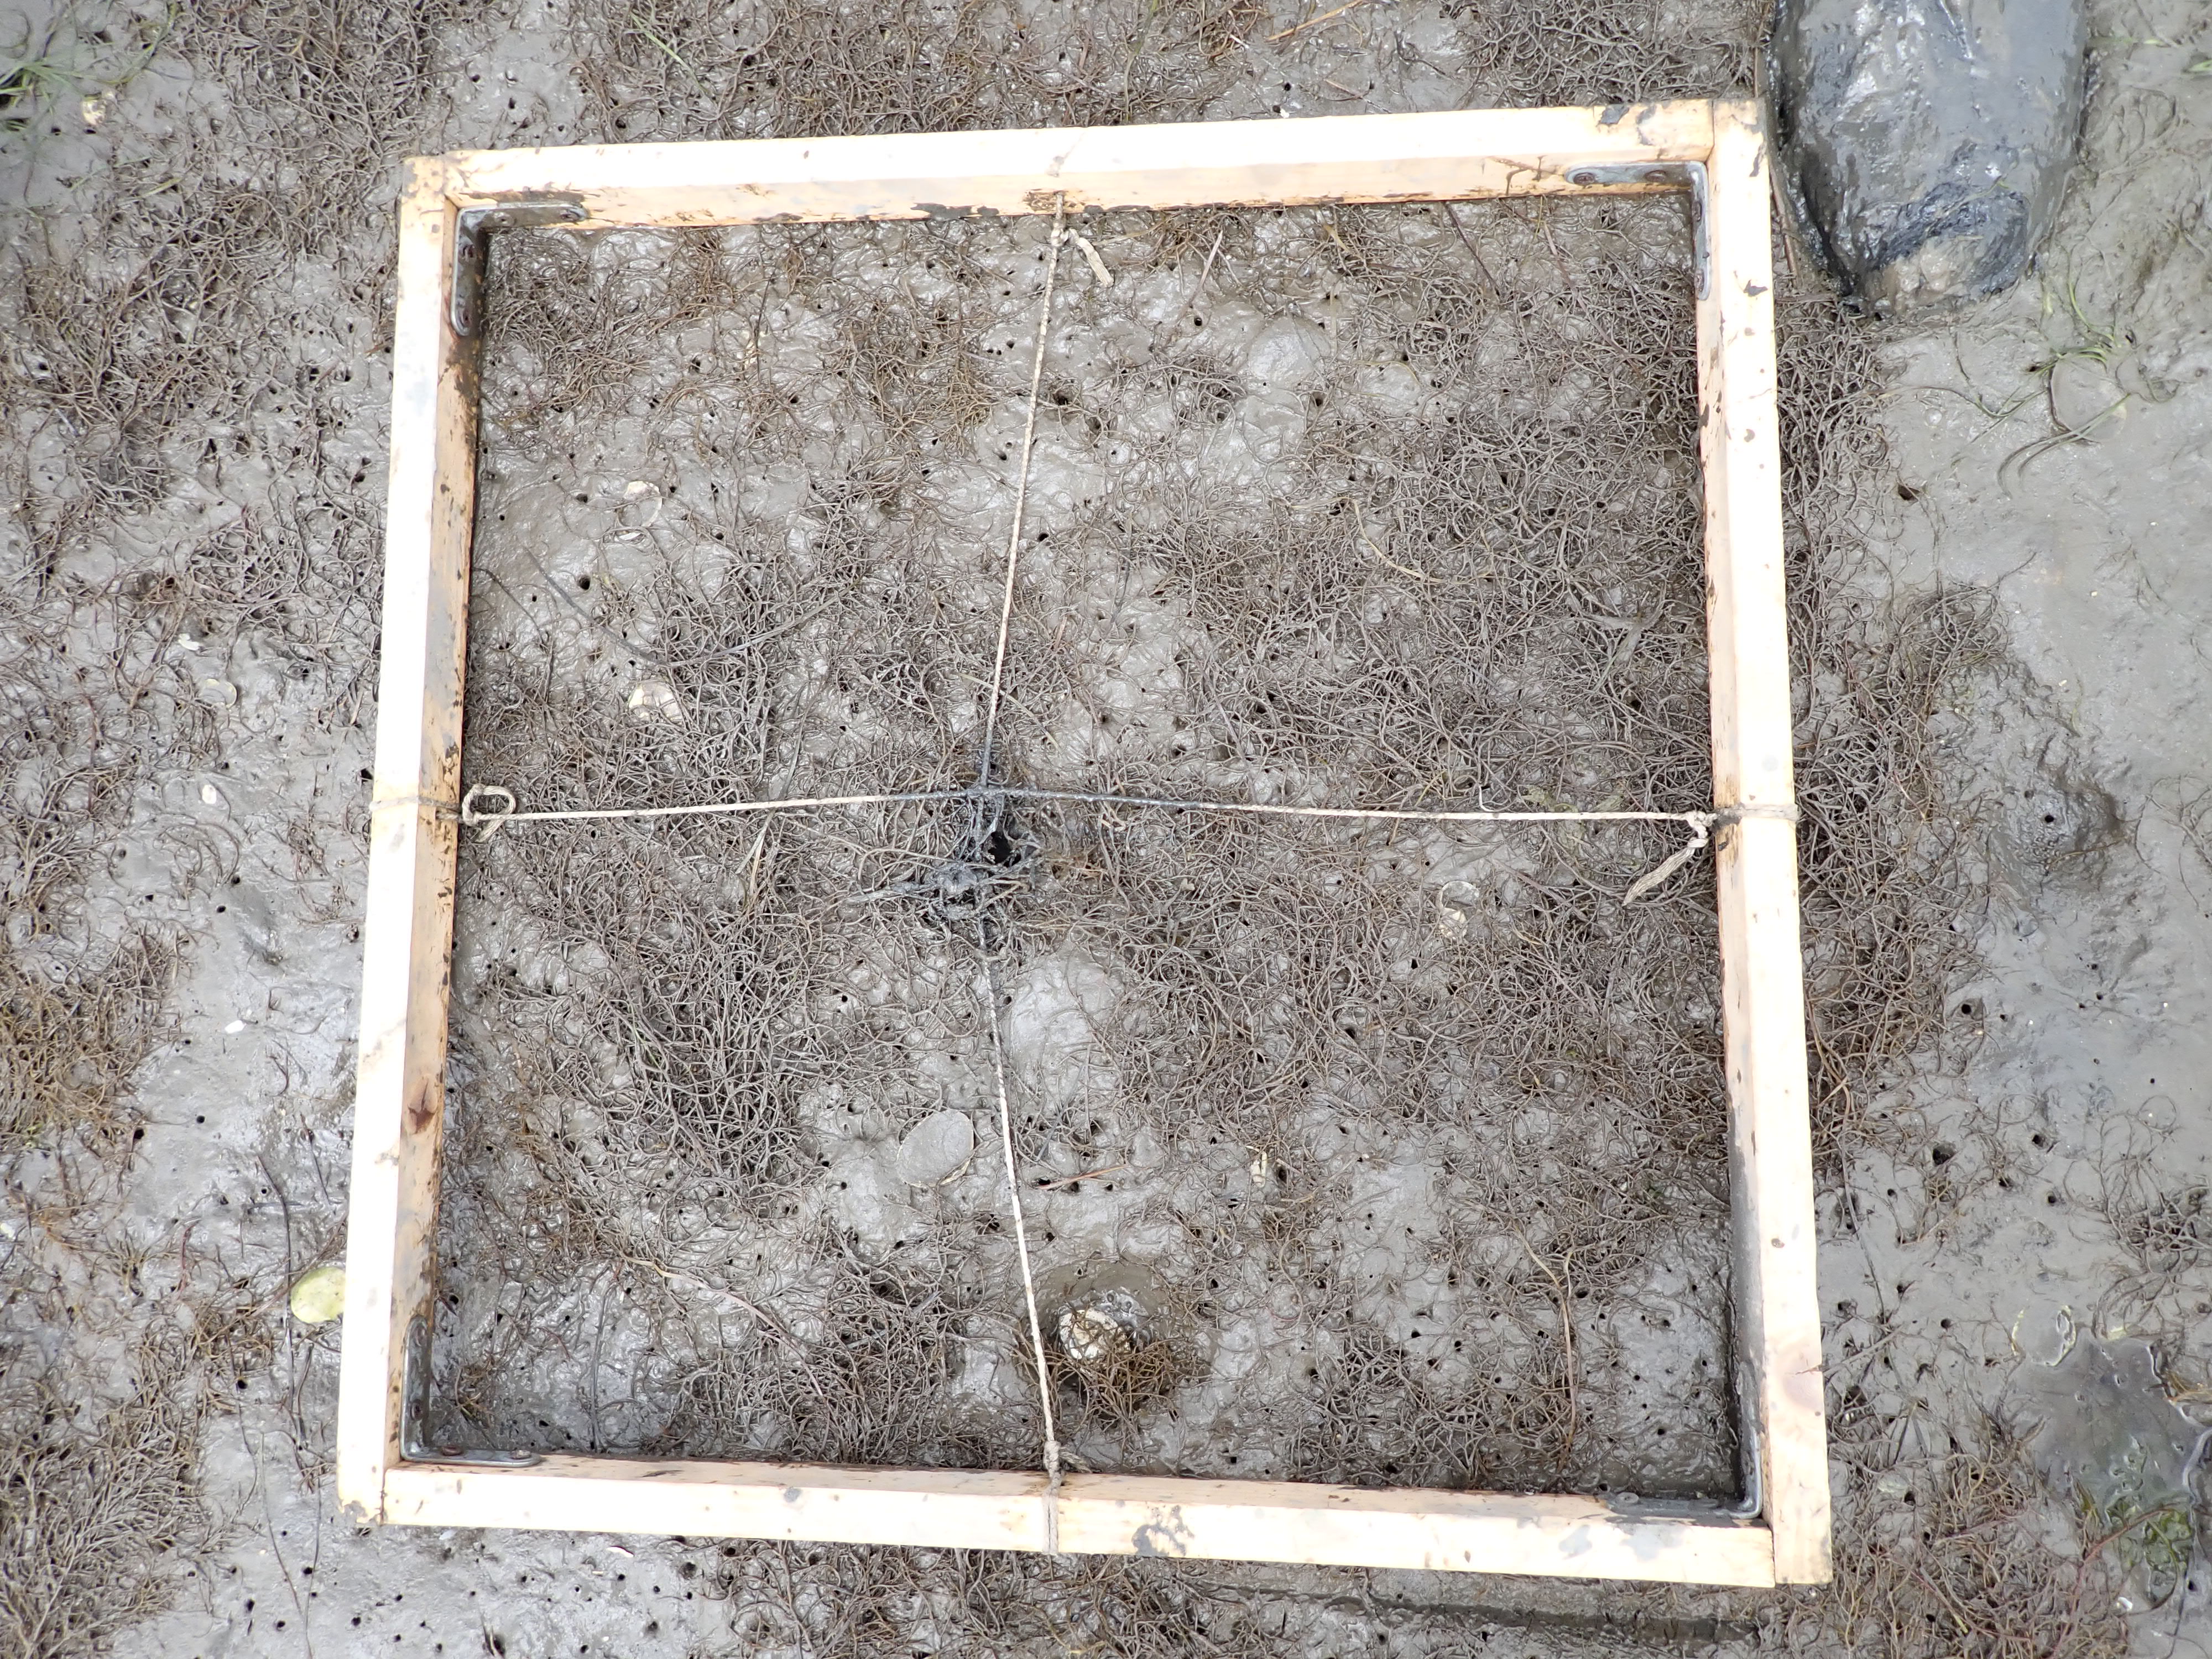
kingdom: Plantae
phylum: Rhodophyta
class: Florideophyceae
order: Gracilariales
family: Gracilariaceae
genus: Gracilaria
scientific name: Gracilaria vermiculophylla
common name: Algae
